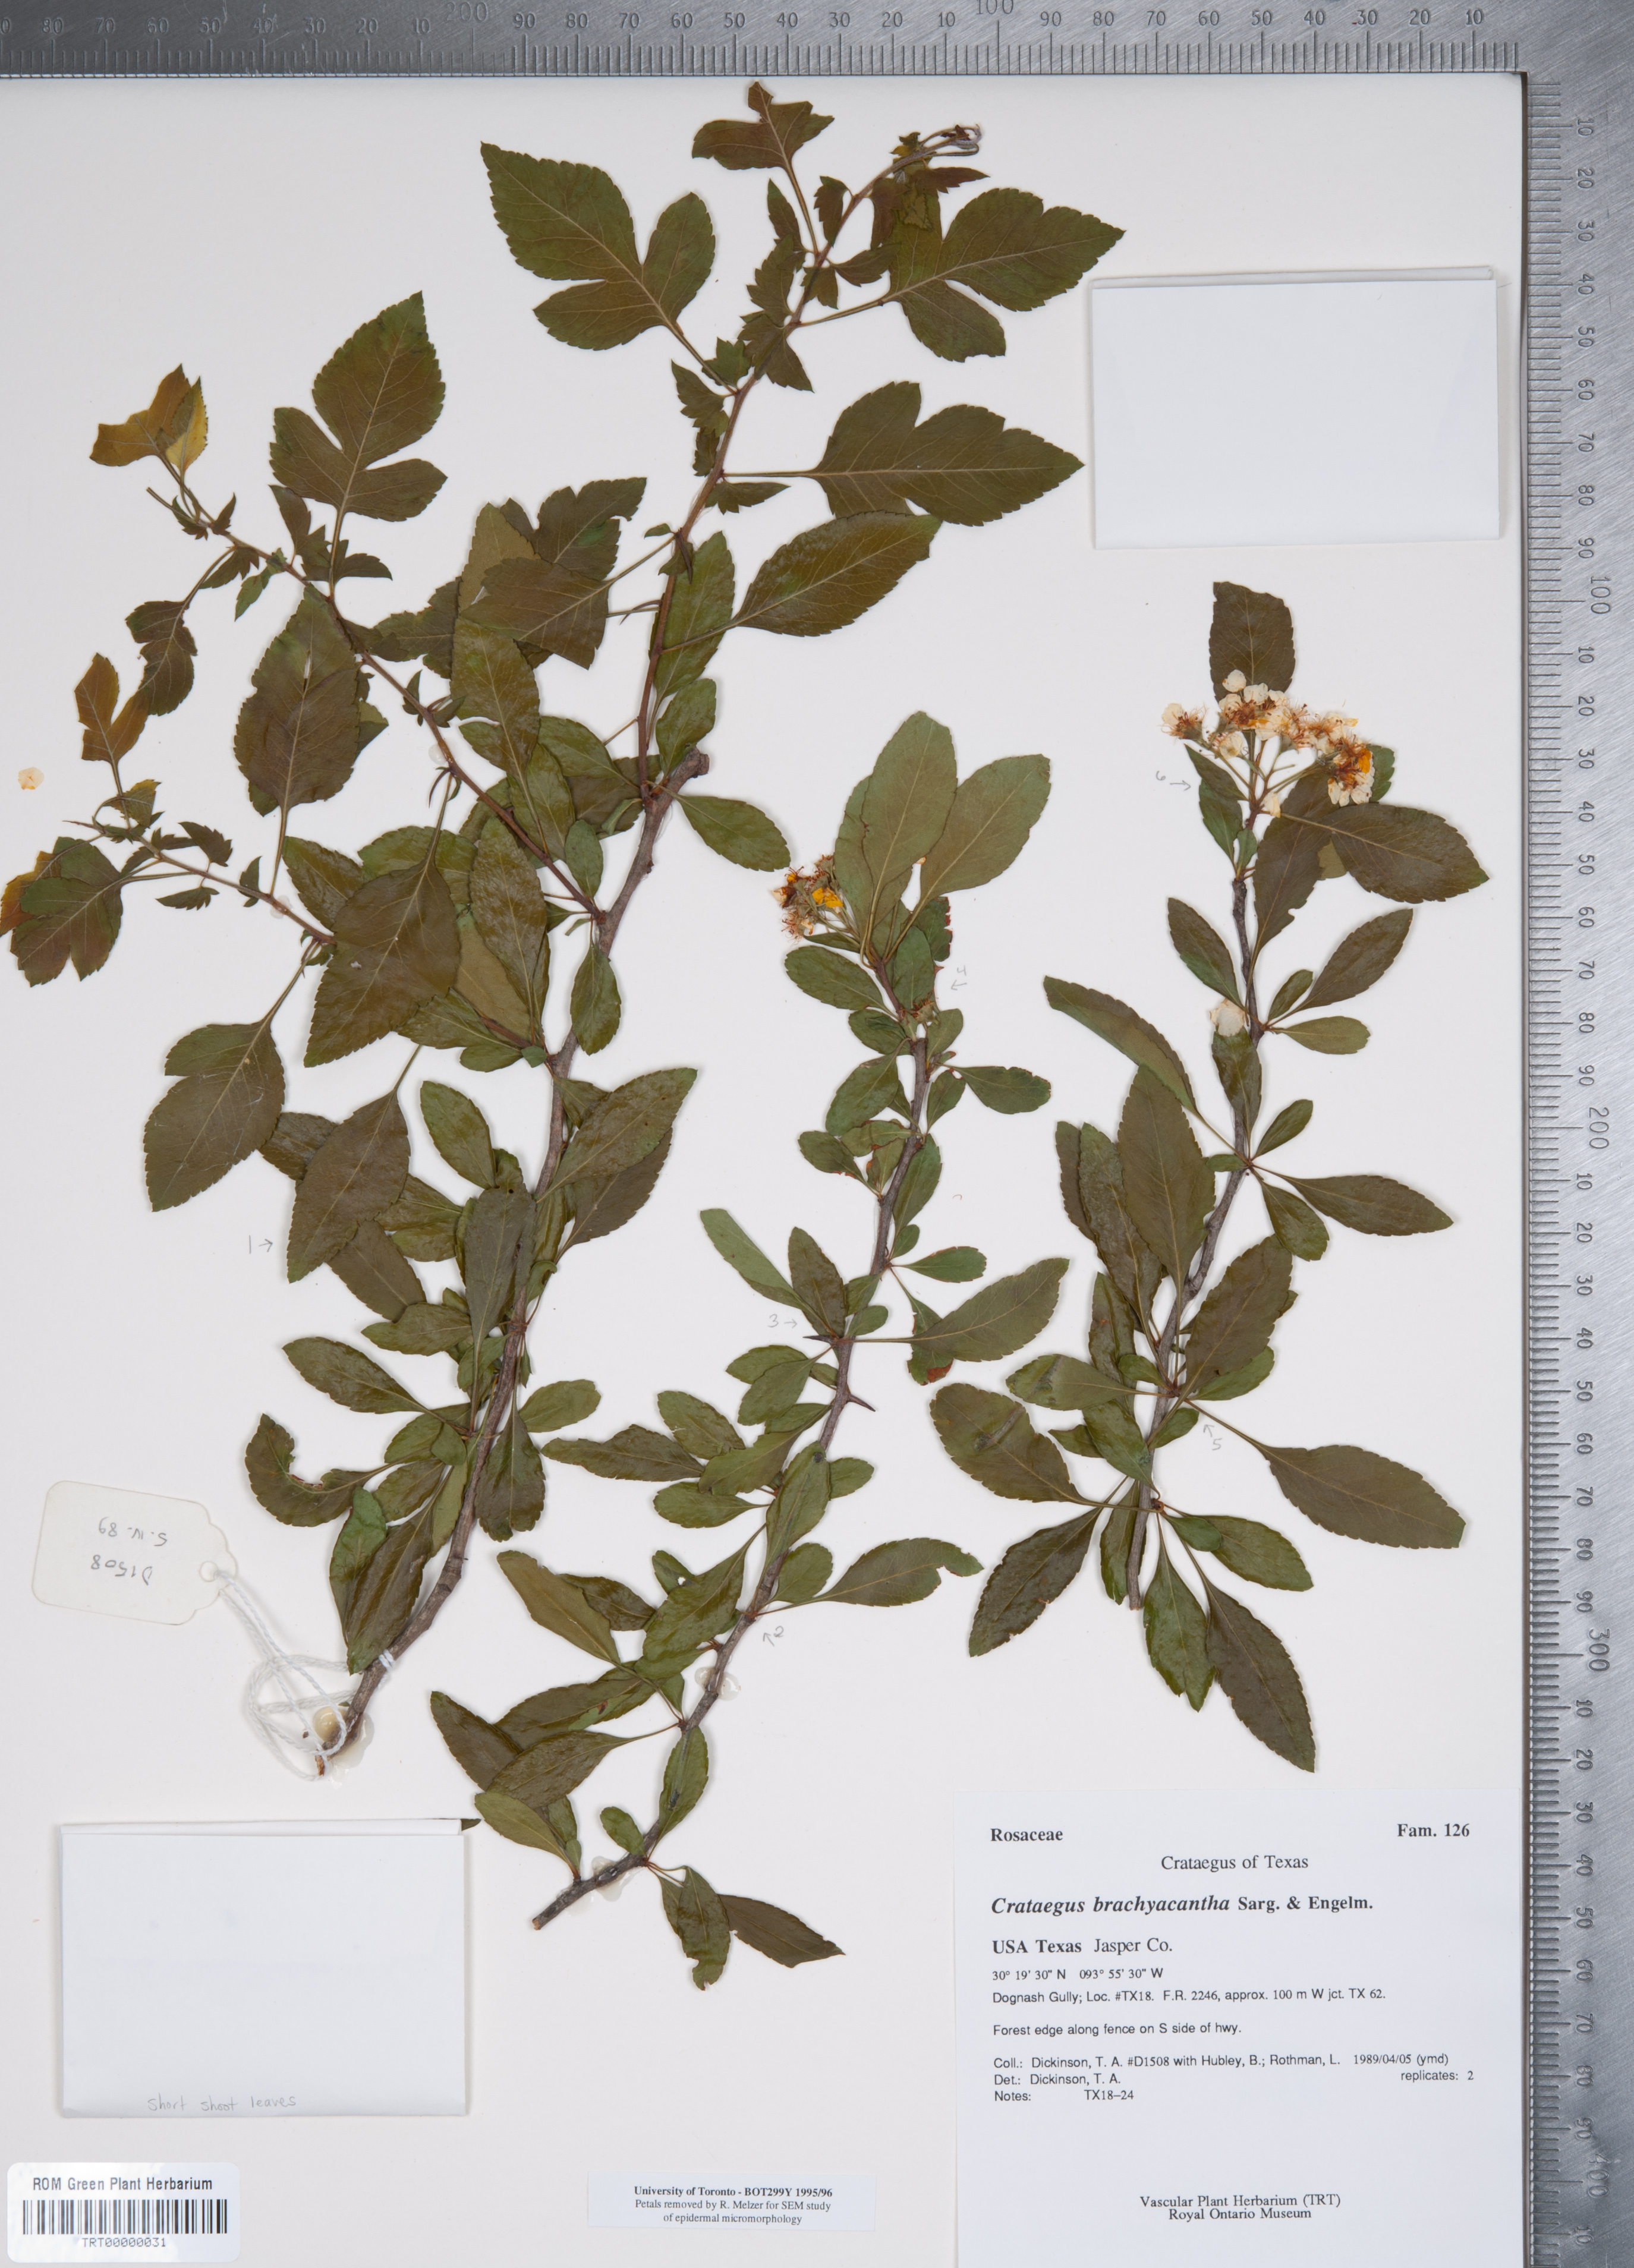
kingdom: Plantae
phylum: Tracheophyta
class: Magnoliopsida
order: Rosales
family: Rosaceae
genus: Crataegus
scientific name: Crataegus brachyacantha
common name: Blueberry-hawthorn
